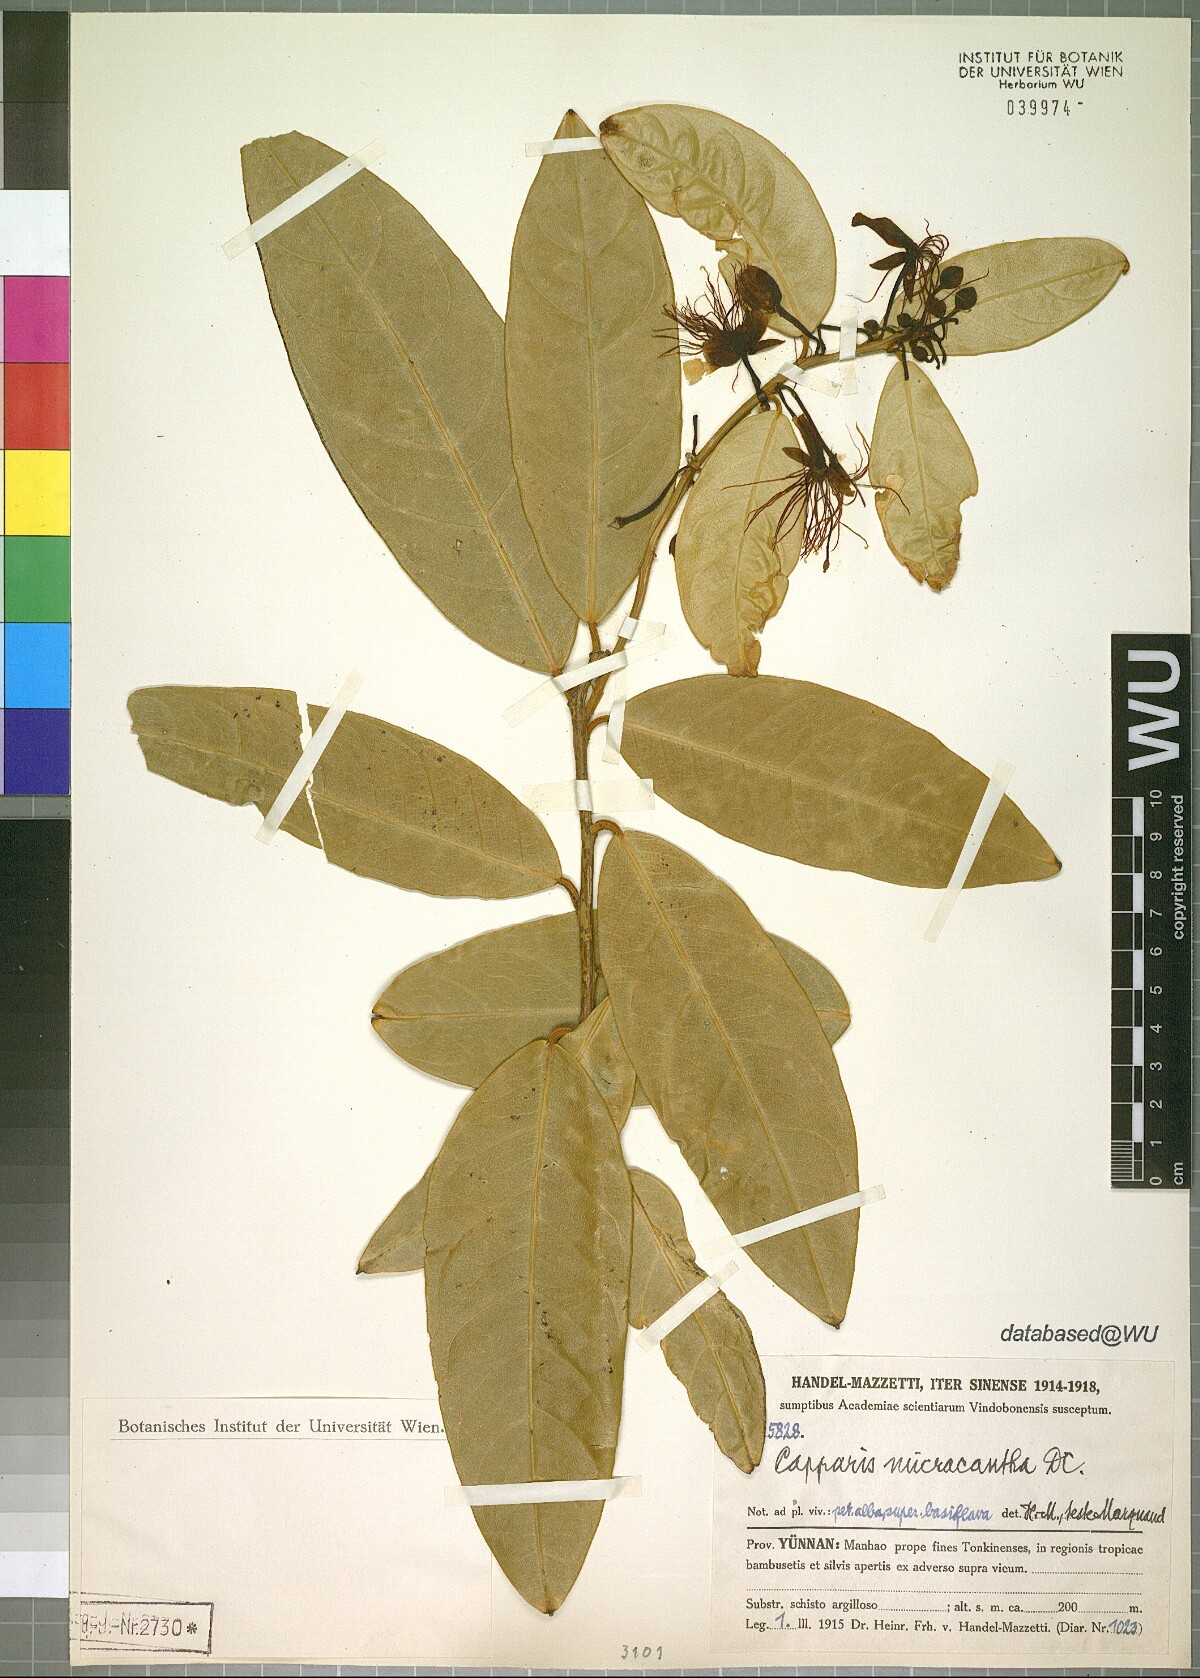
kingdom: Plantae
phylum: Tracheophyta
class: Magnoliopsida
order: Brassicales
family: Capparaceae
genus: Capparis
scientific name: Capparis micracantha
